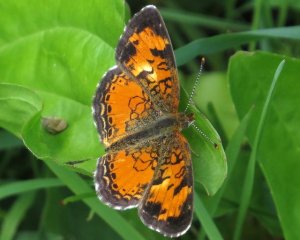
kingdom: Animalia
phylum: Arthropoda
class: Insecta
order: Lepidoptera
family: Nymphalidae
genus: Phyciodes
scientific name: Phyciodes tharos
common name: Northern Crescent
